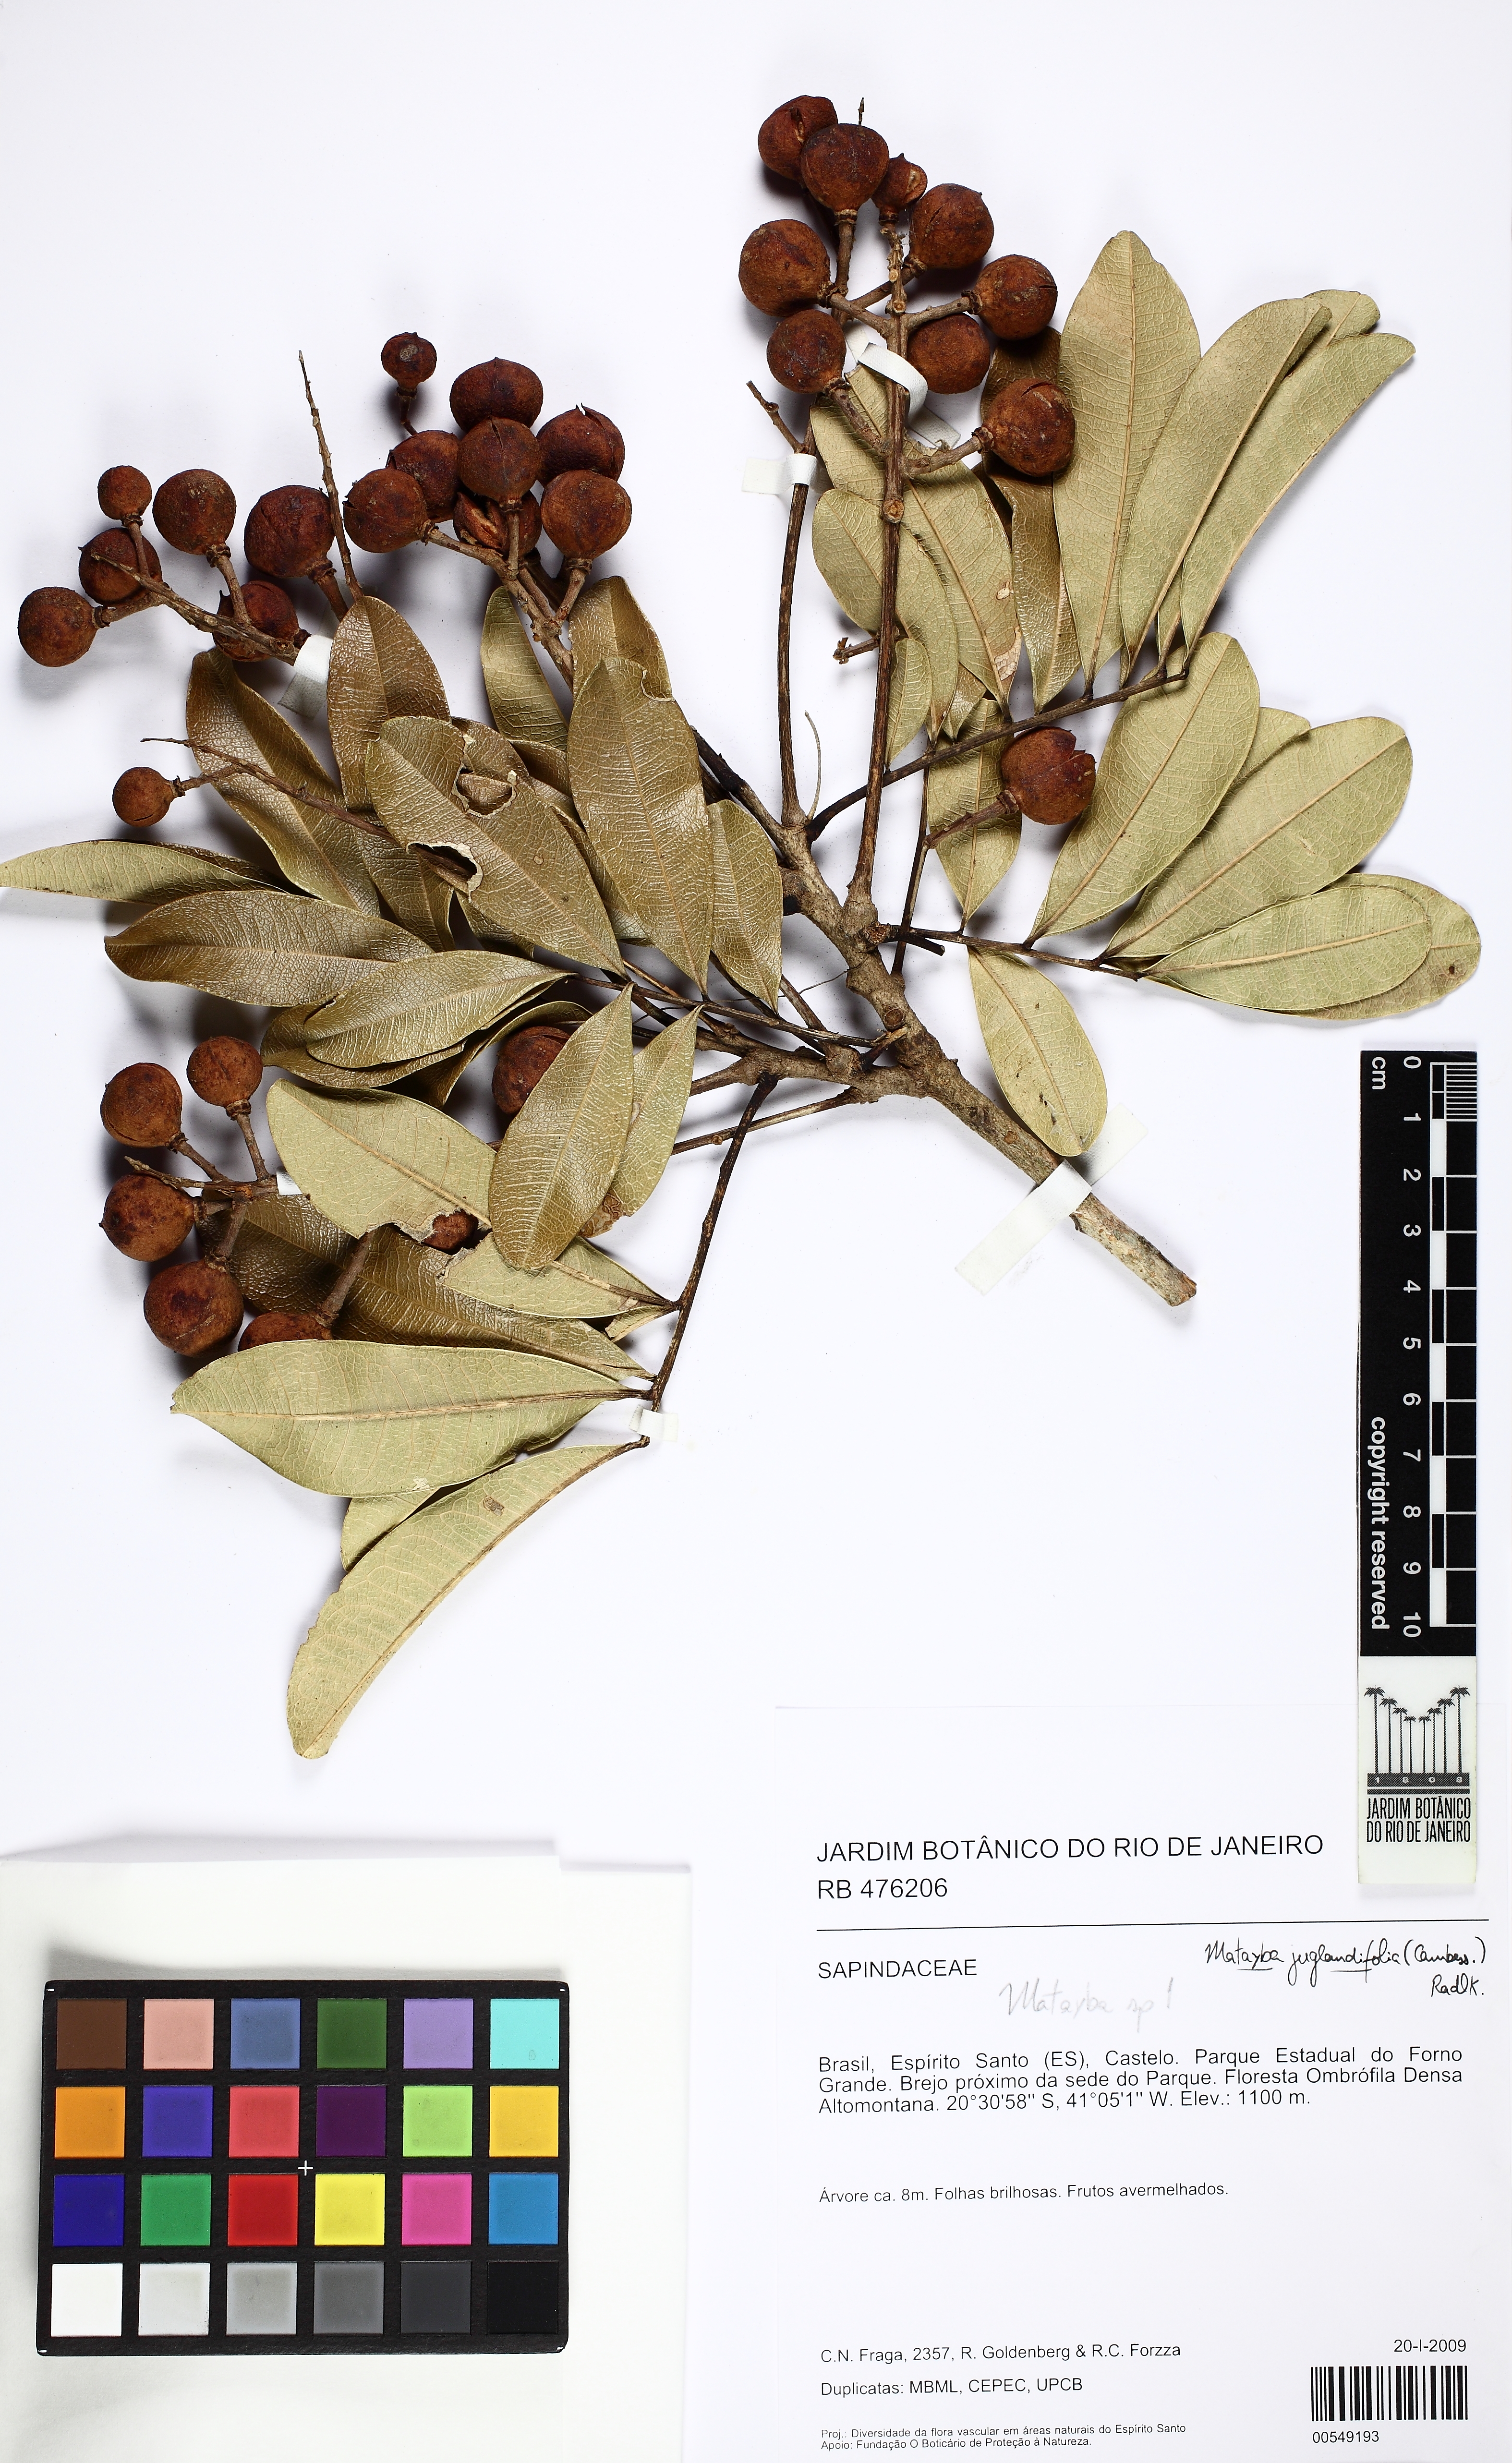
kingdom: Plantae
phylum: Tracheophyta
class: Magnoliopsida
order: Sapindales
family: Sapindaceae
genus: Matayba
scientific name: Matayba juglandifolia
